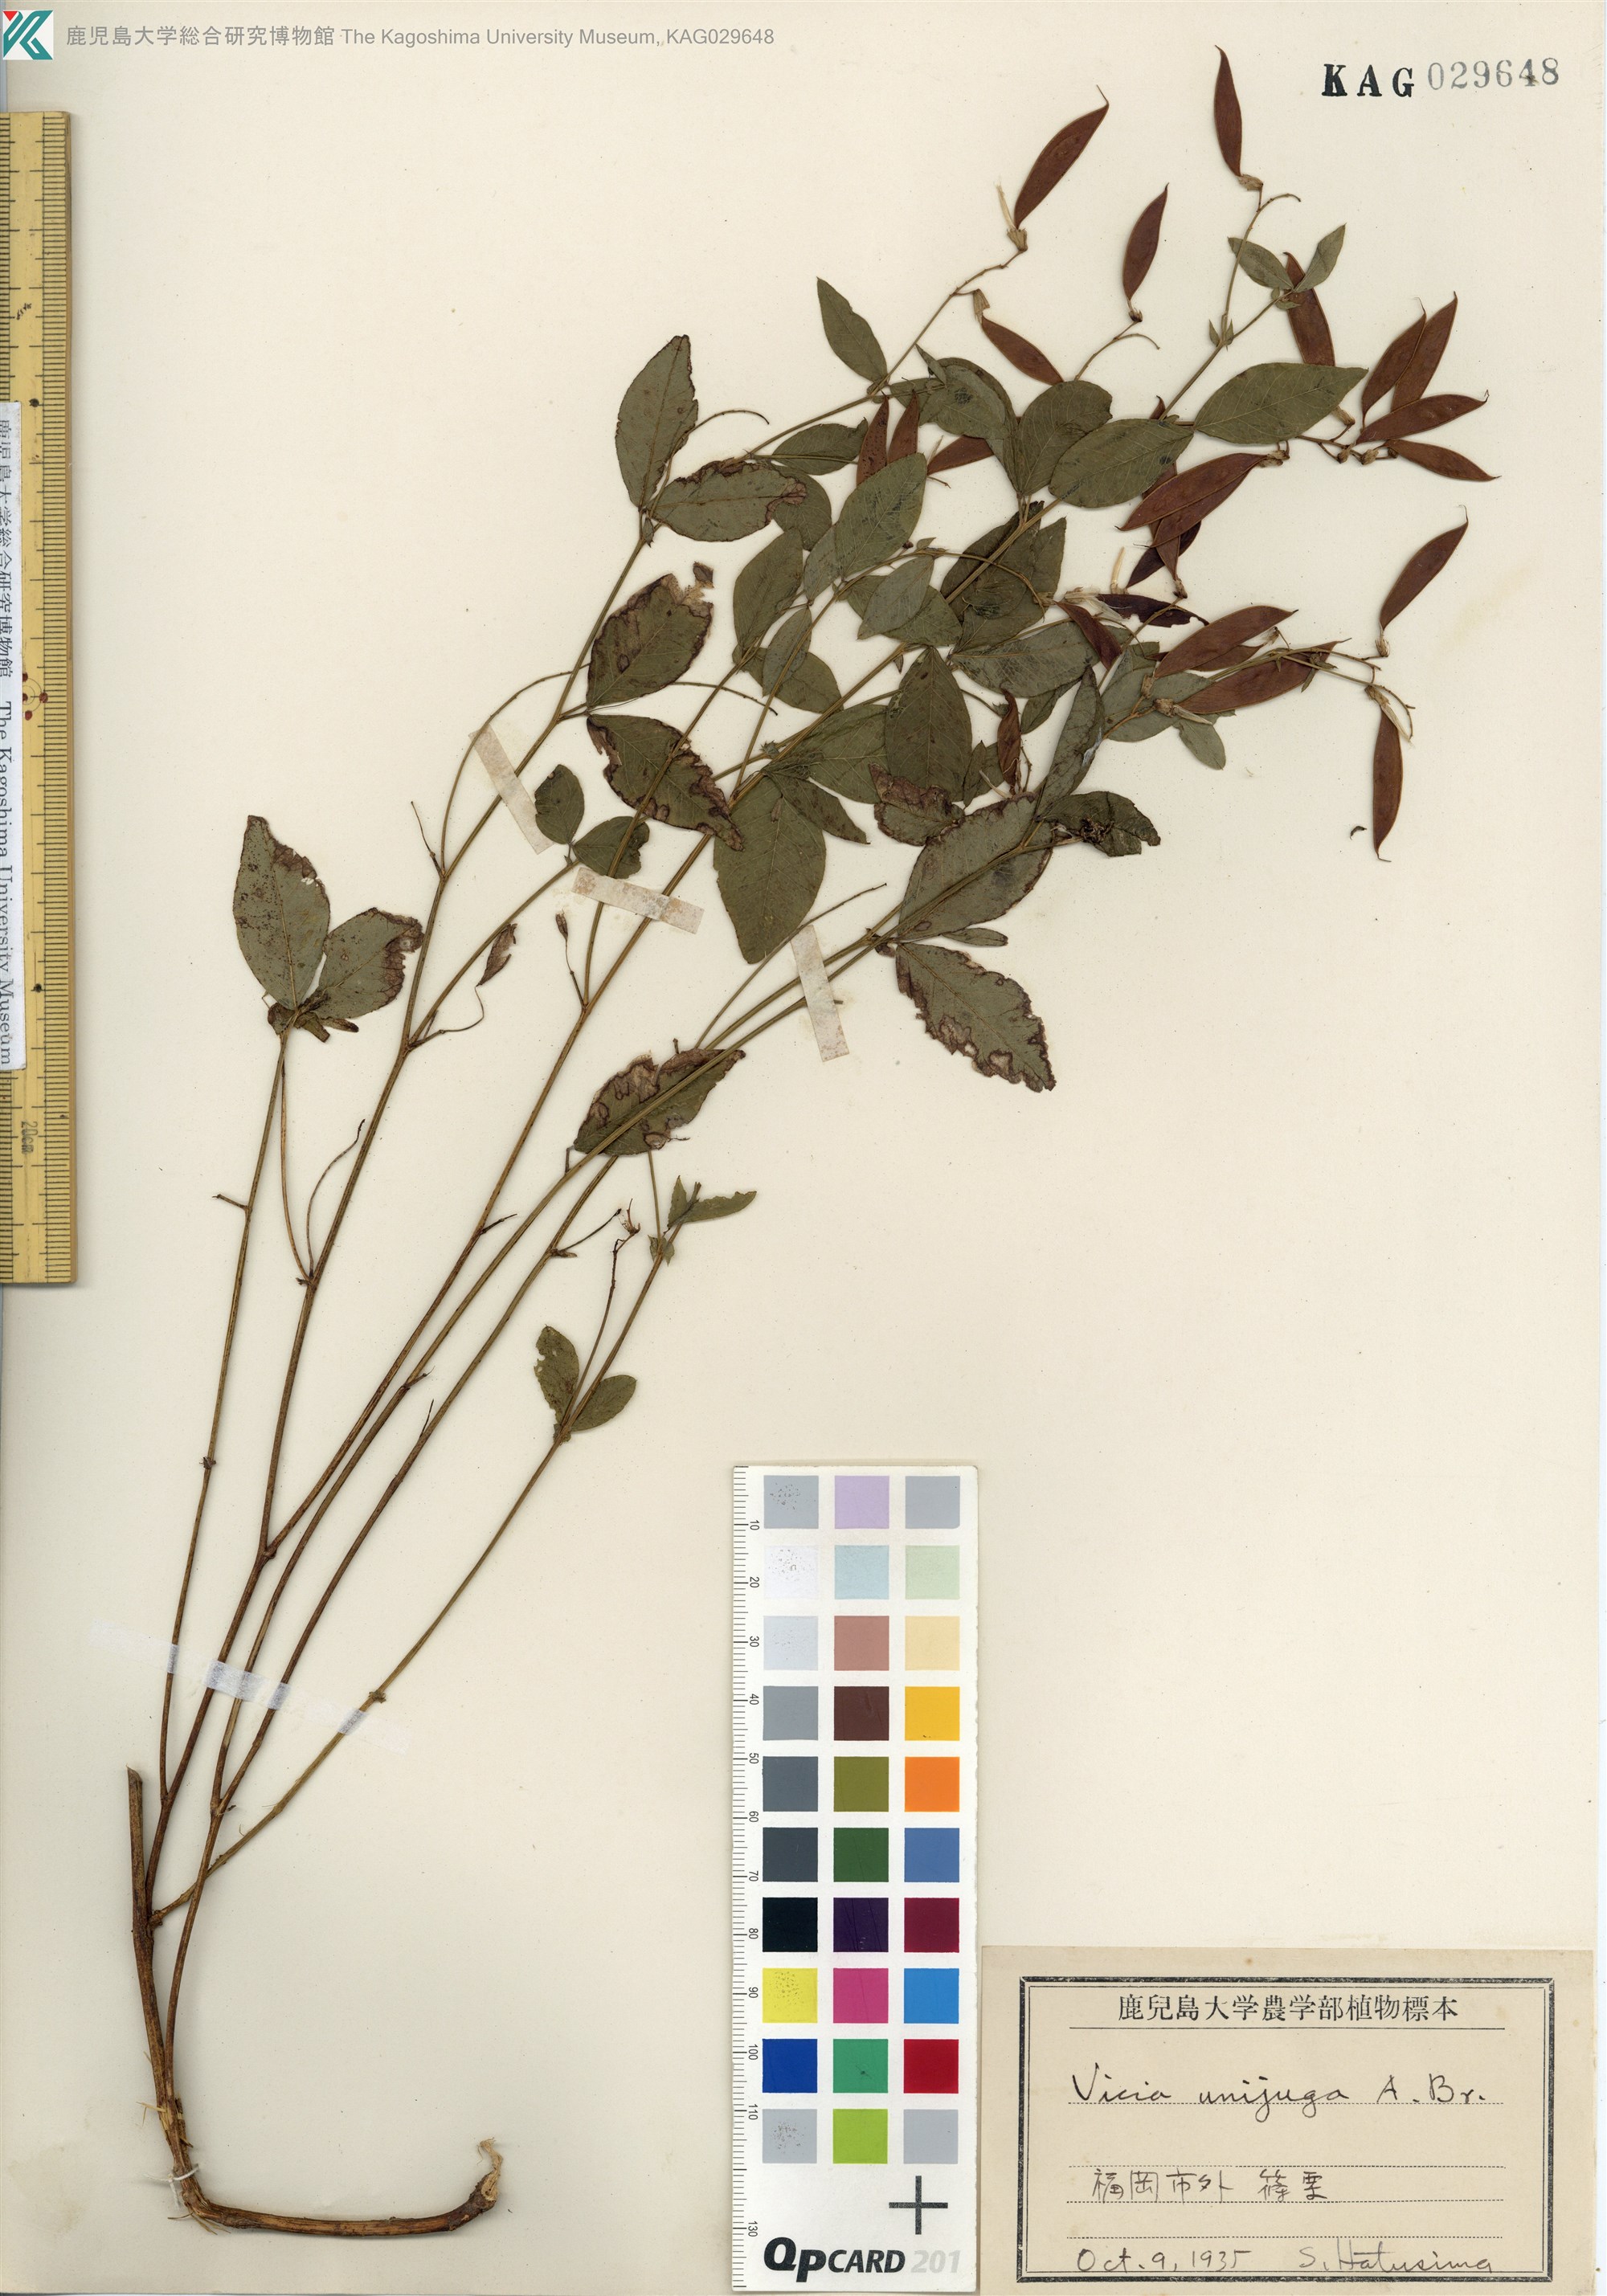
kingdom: Plantae
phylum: Tracheophyta
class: Magnoliopsida
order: Fabales
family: Fabaceae
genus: Vicia
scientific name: Vicia unijuga
